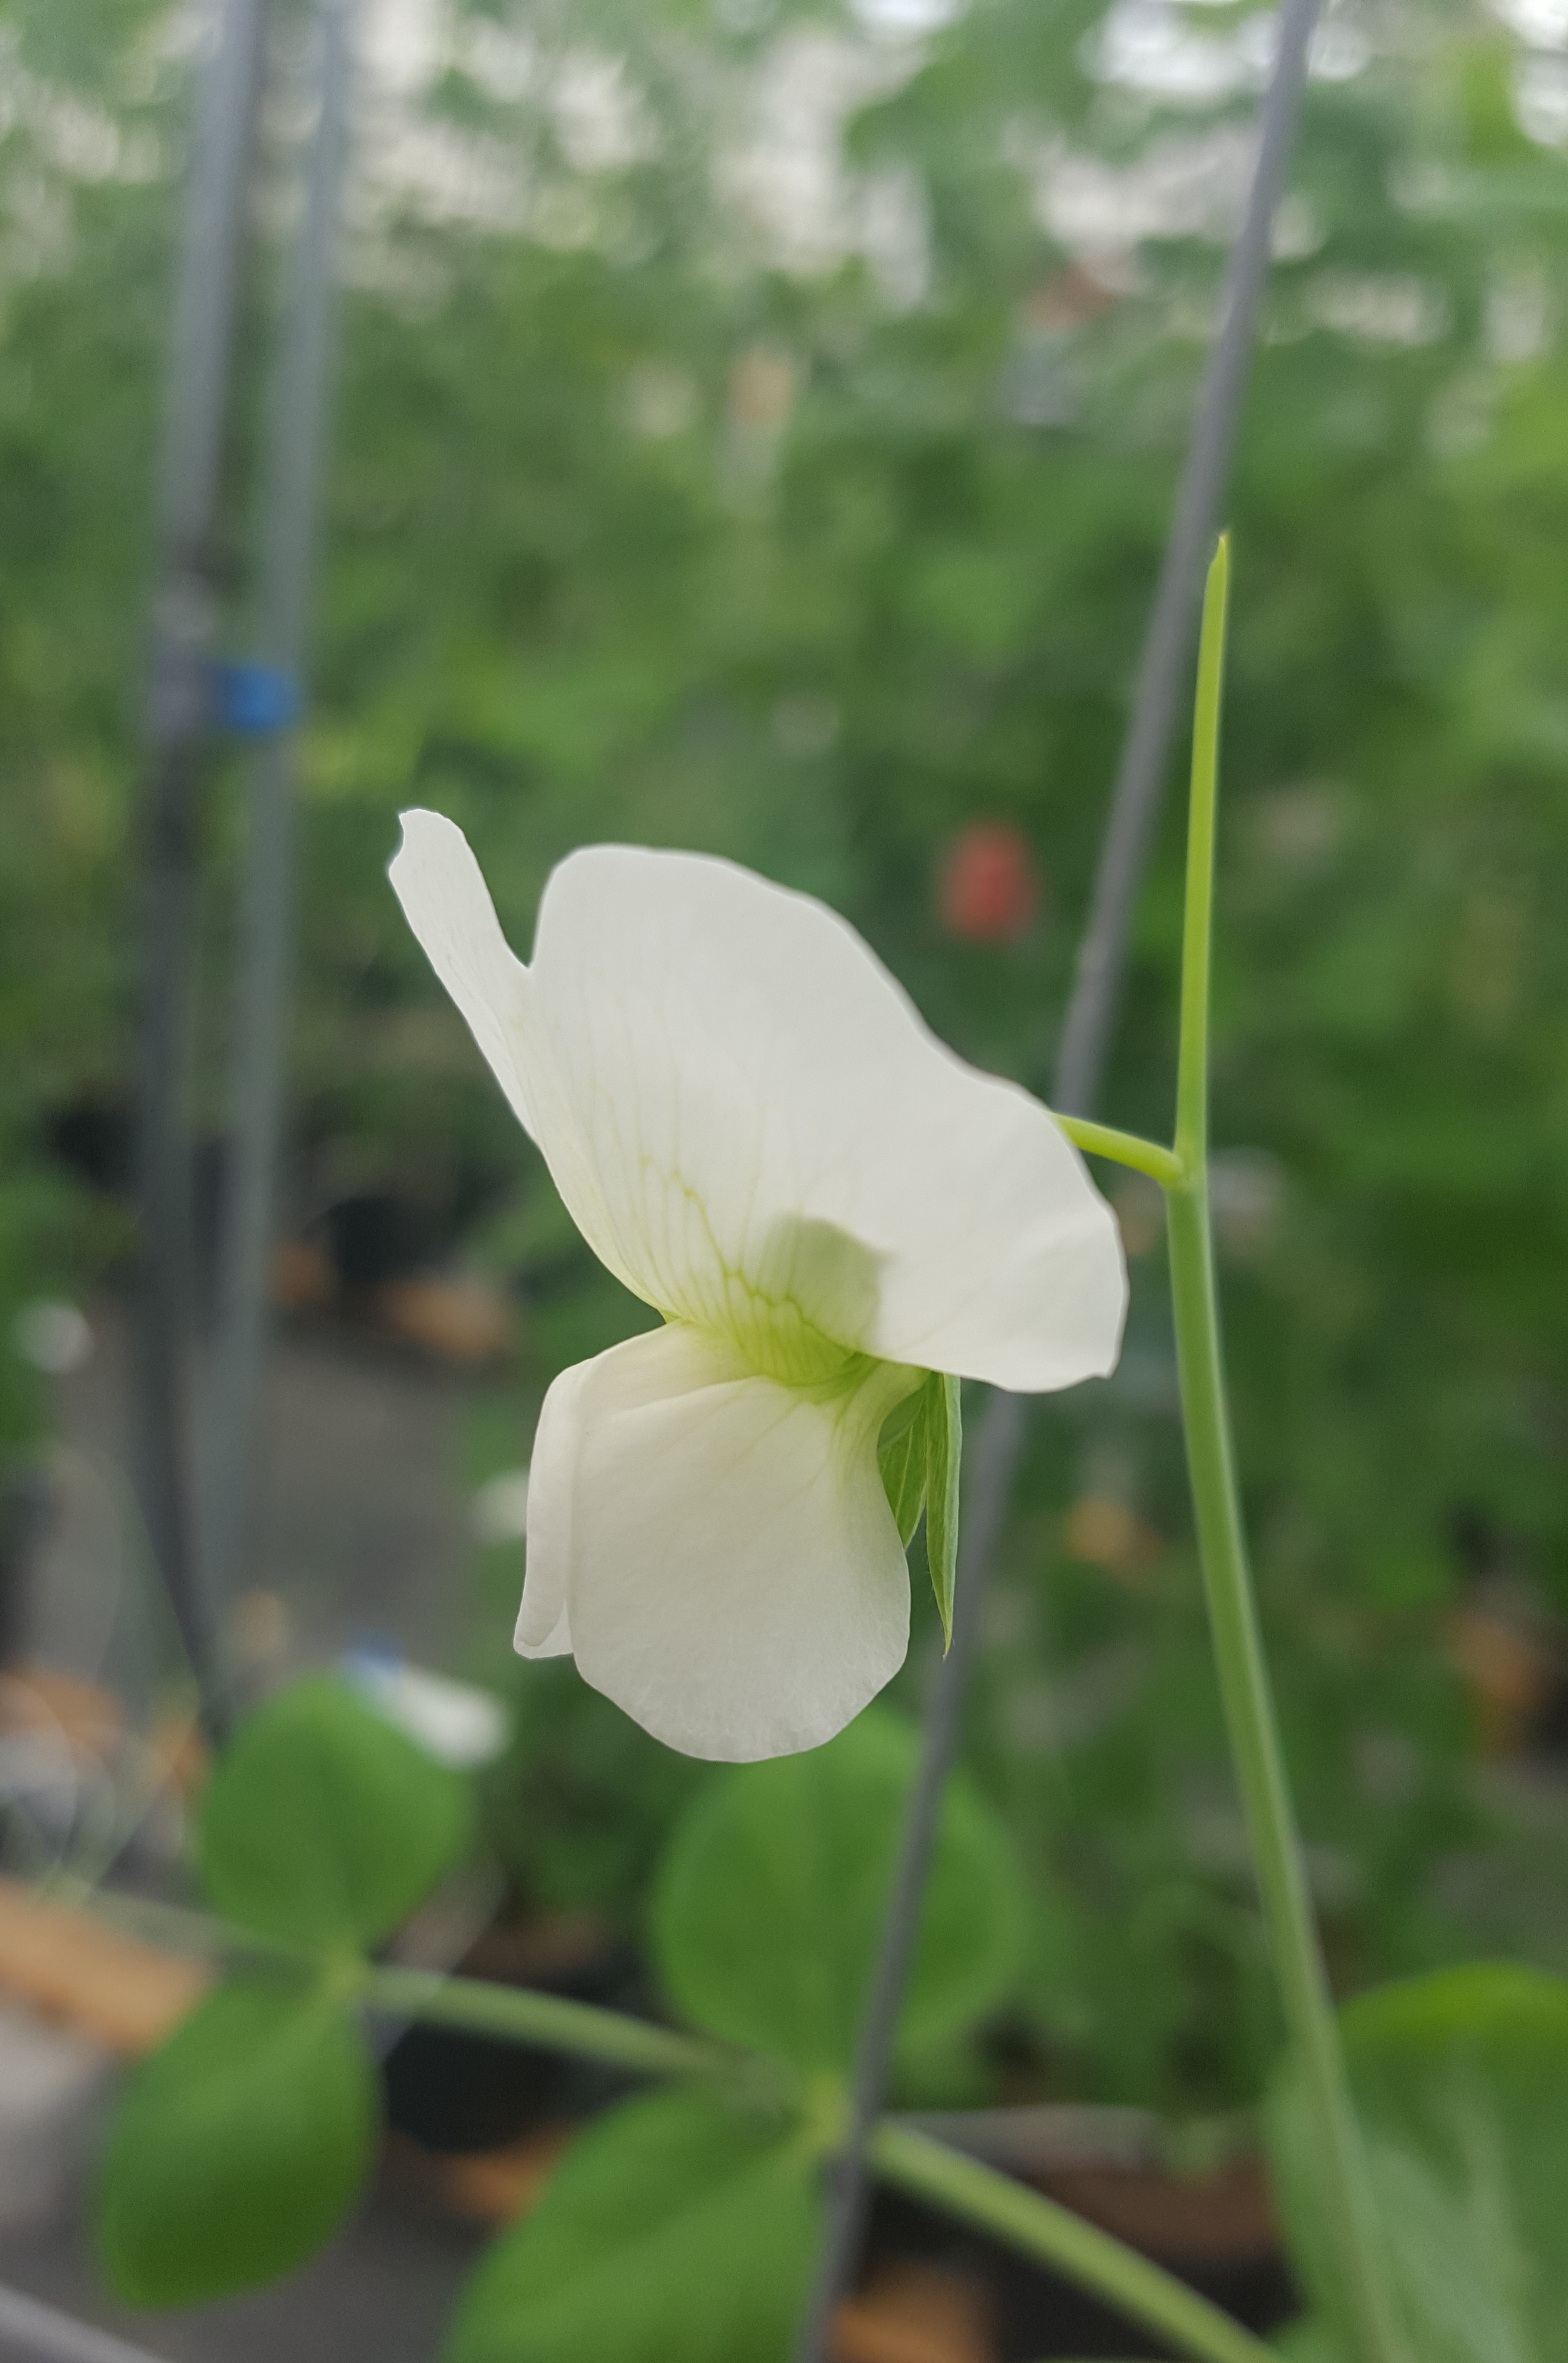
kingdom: Plantae
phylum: Tracheophyta
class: Magnoliopsida
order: Fabales
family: Fabaceae
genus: Lathyrus
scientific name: Lathyrus oleraceus
